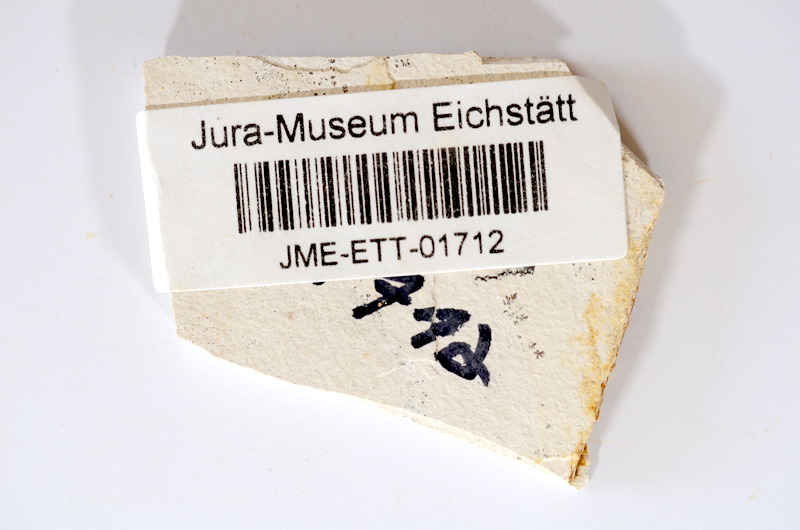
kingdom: Animalia
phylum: Chordata
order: Salmoniformes
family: Orthogonikleithridae
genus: Orthogonikleithrus
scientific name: Orthogonikleithrus hoelli
